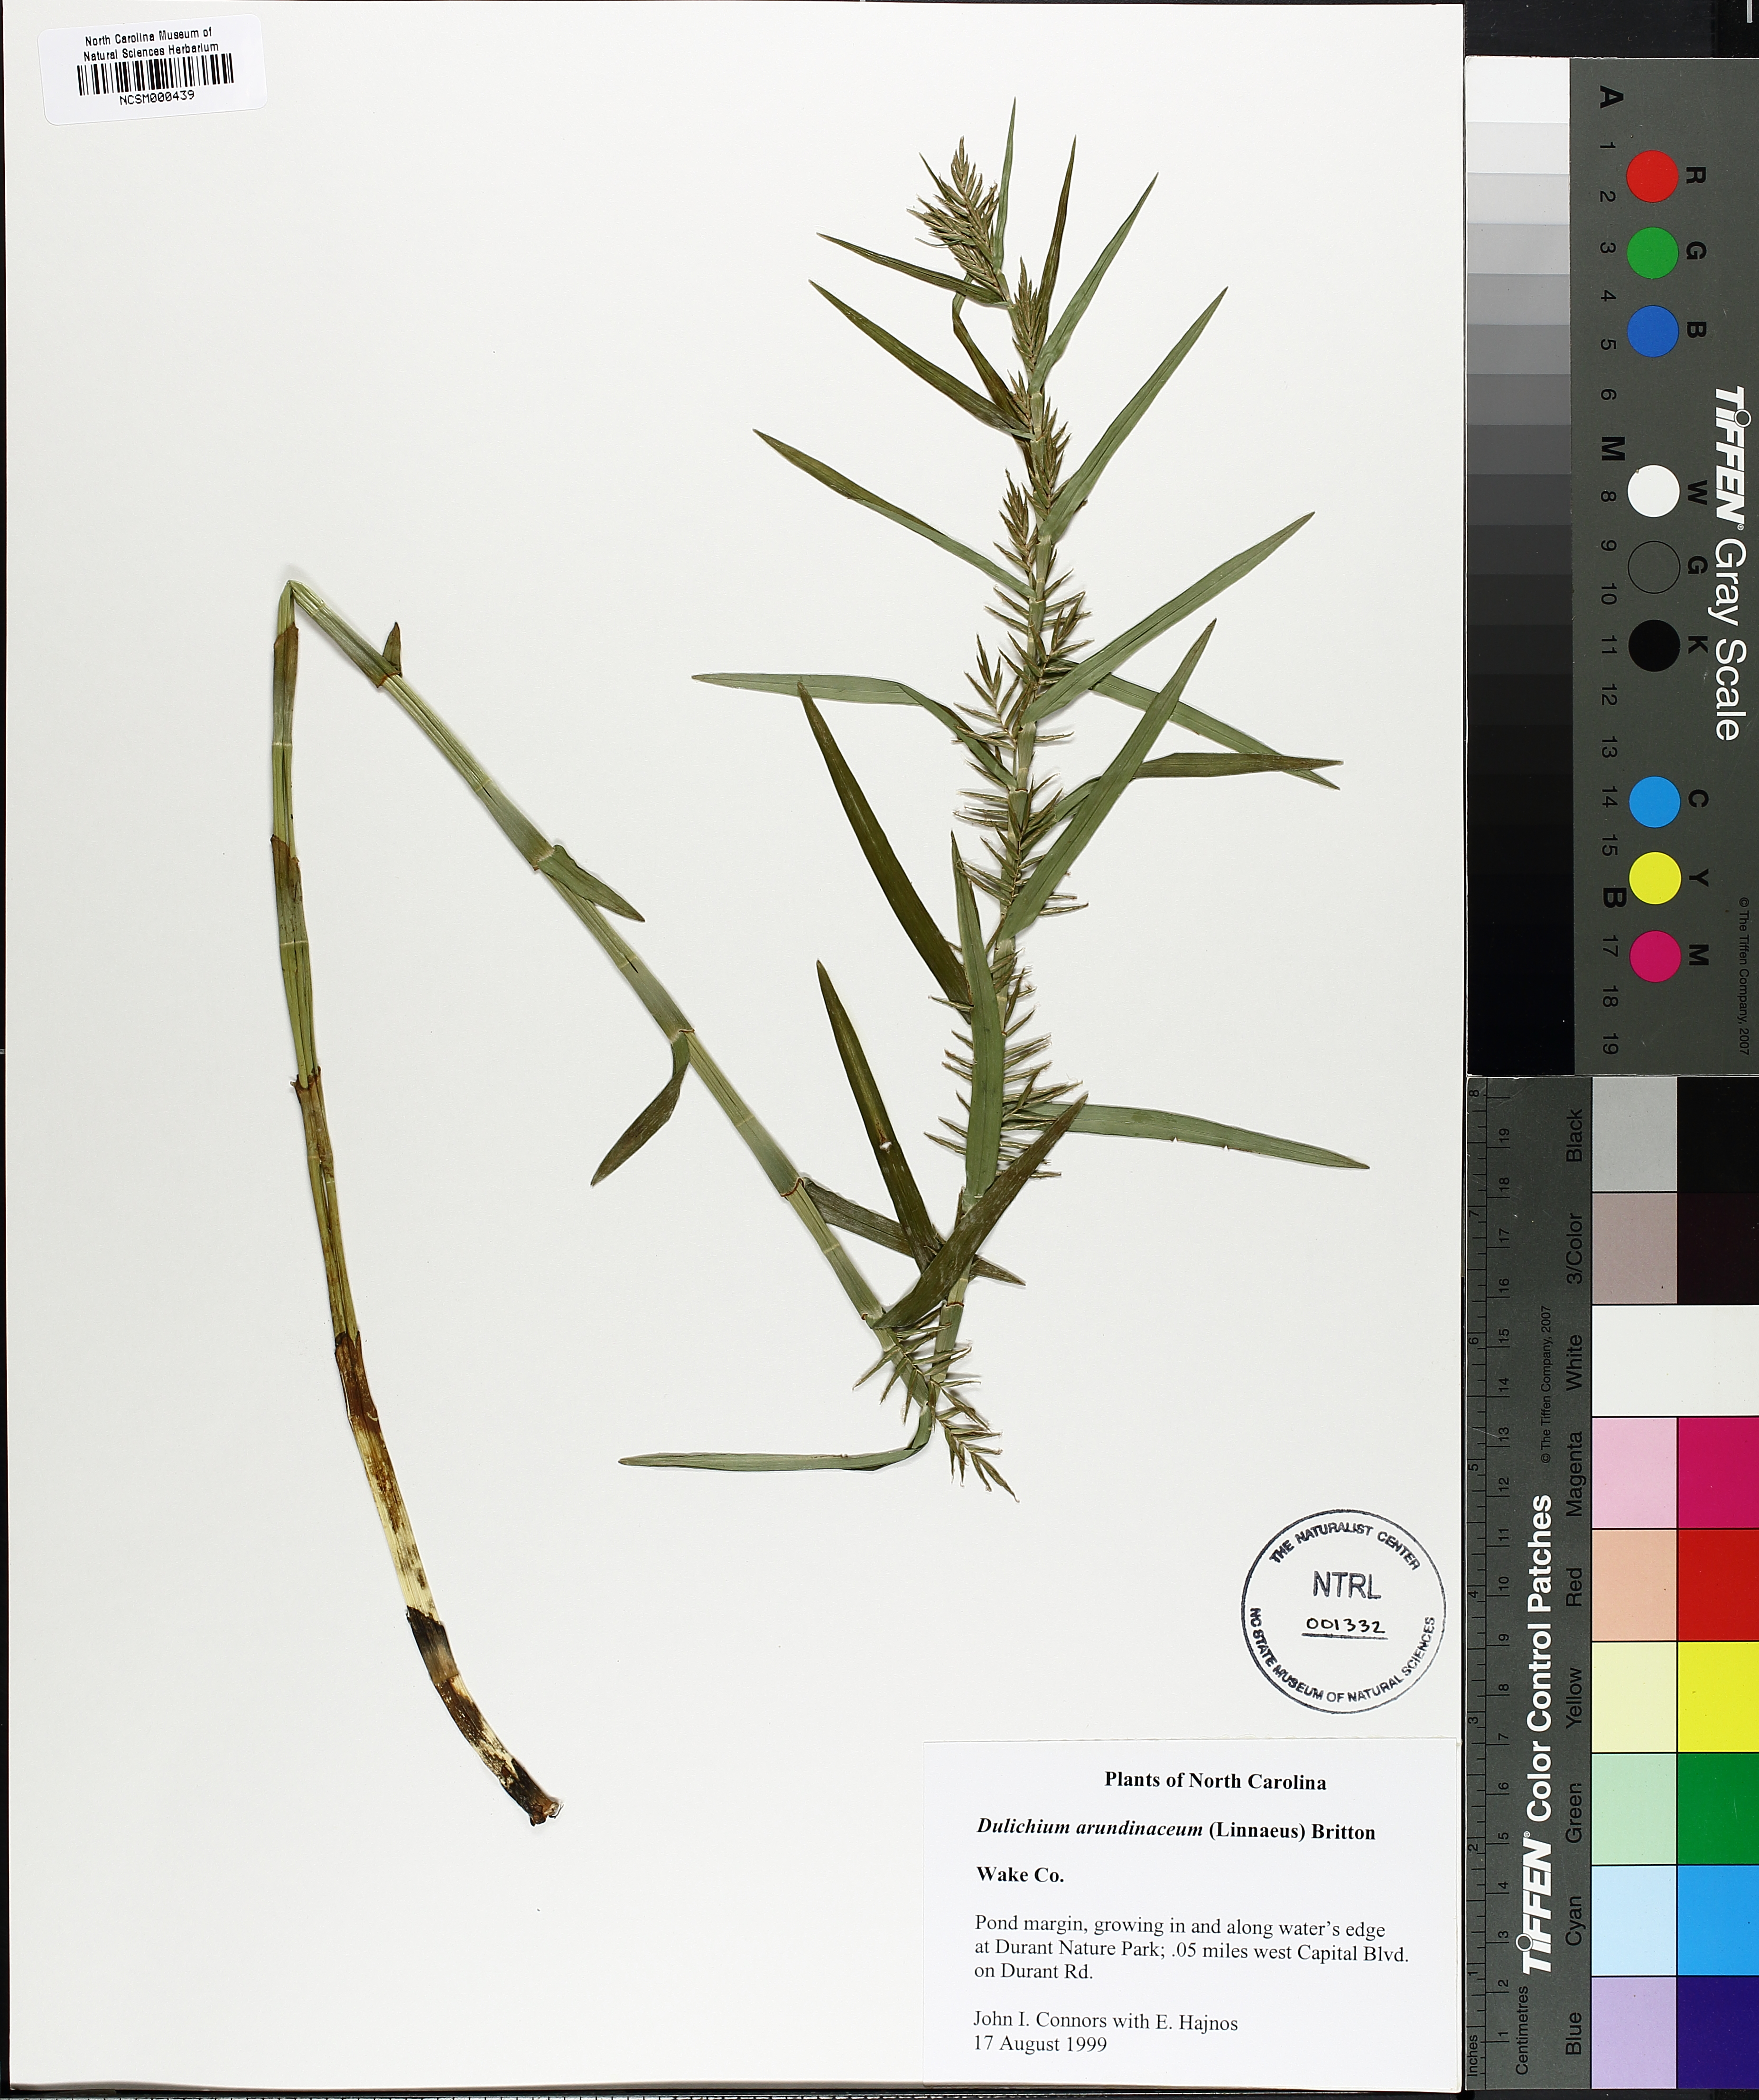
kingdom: Plantae
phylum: Tracheophyta
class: Liliopsida
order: Poales
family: Cyperaceae
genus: Dulichium
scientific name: Dulichium arundinaceum
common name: Three-way sedge
